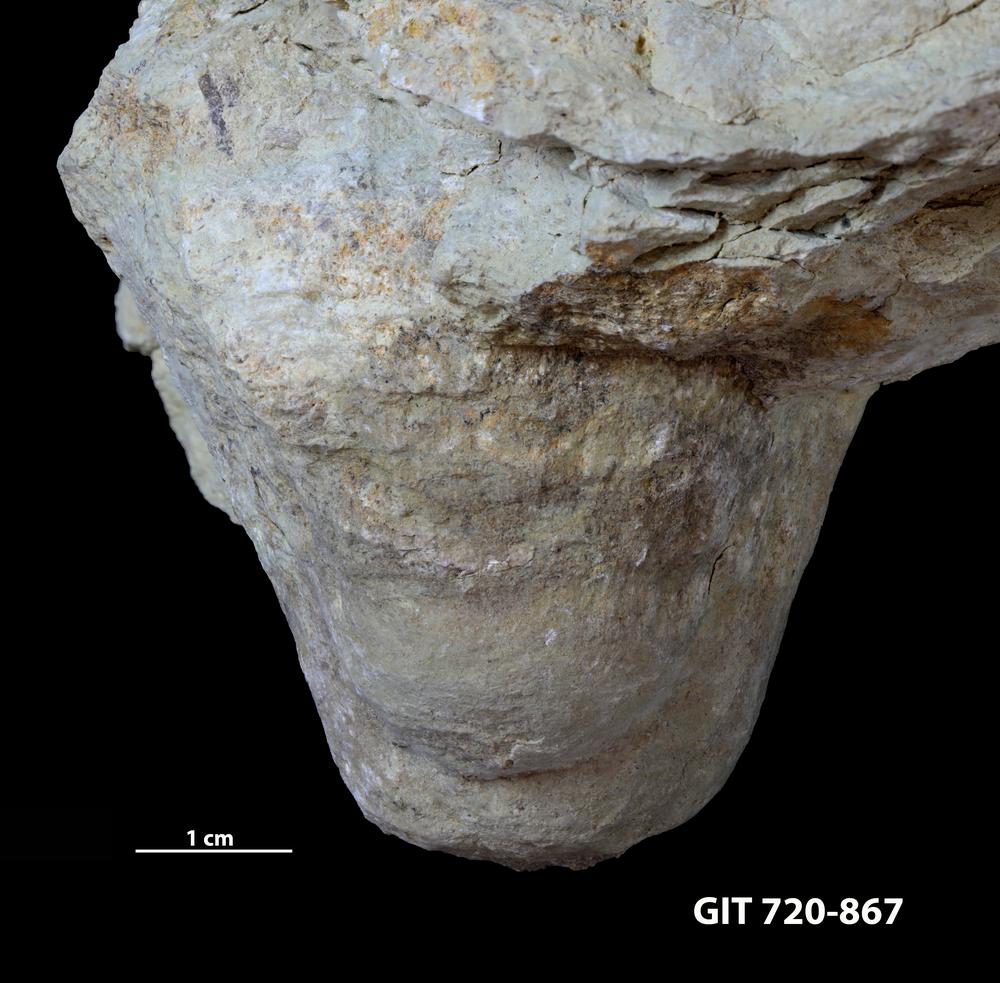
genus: Conichnus
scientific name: Conichnus
